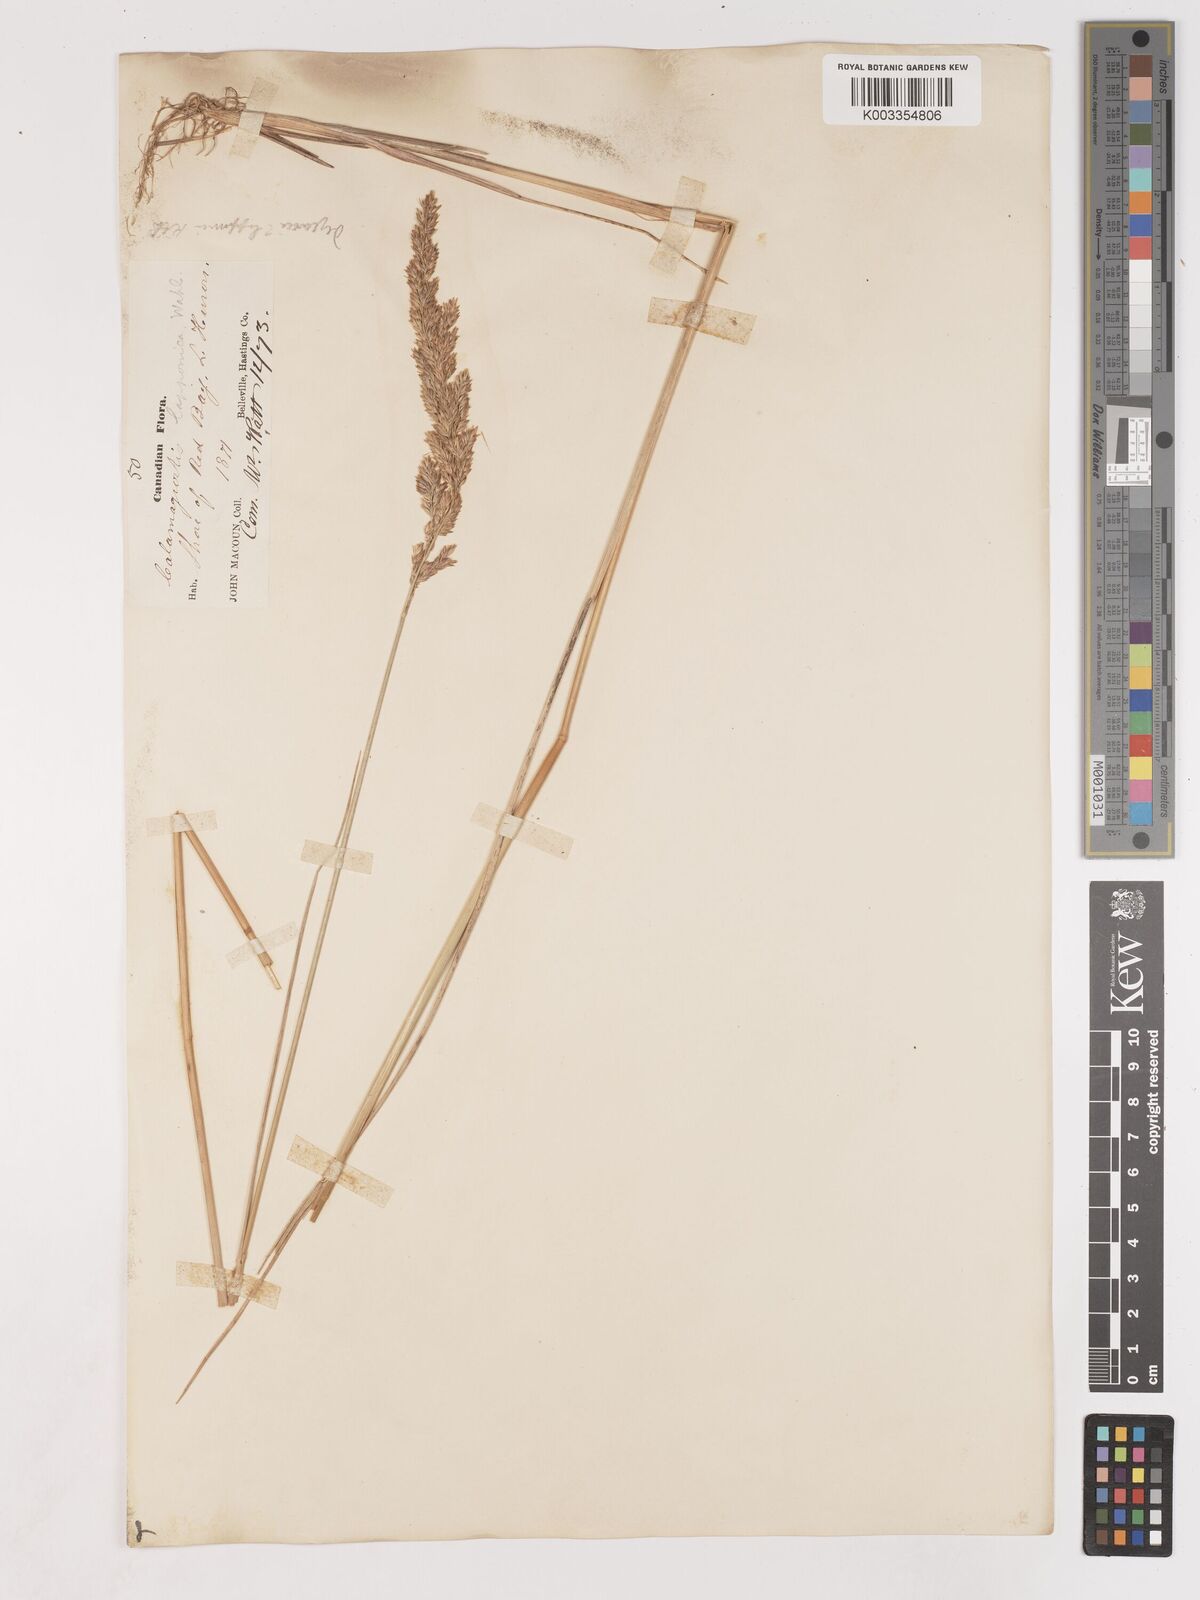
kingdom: Plantae
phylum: Tracheophyta
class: Liliopsida
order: Poales
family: Poaceae
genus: Calamagrostis
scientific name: Calamagrostis
